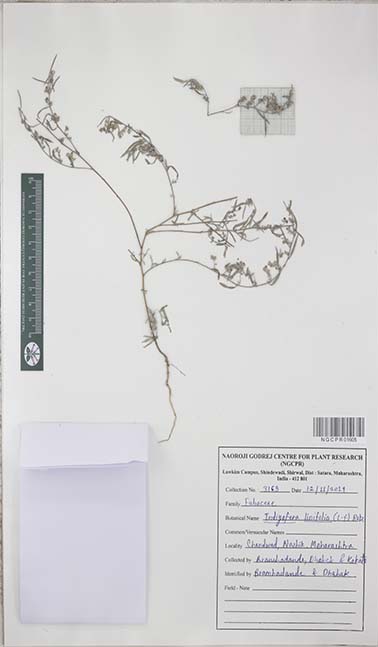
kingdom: Plantae
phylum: Tracheophyta
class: Magnoliopsida
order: Fabales
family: Fabaceae
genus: Indigofera
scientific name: Indigofera linifolia
